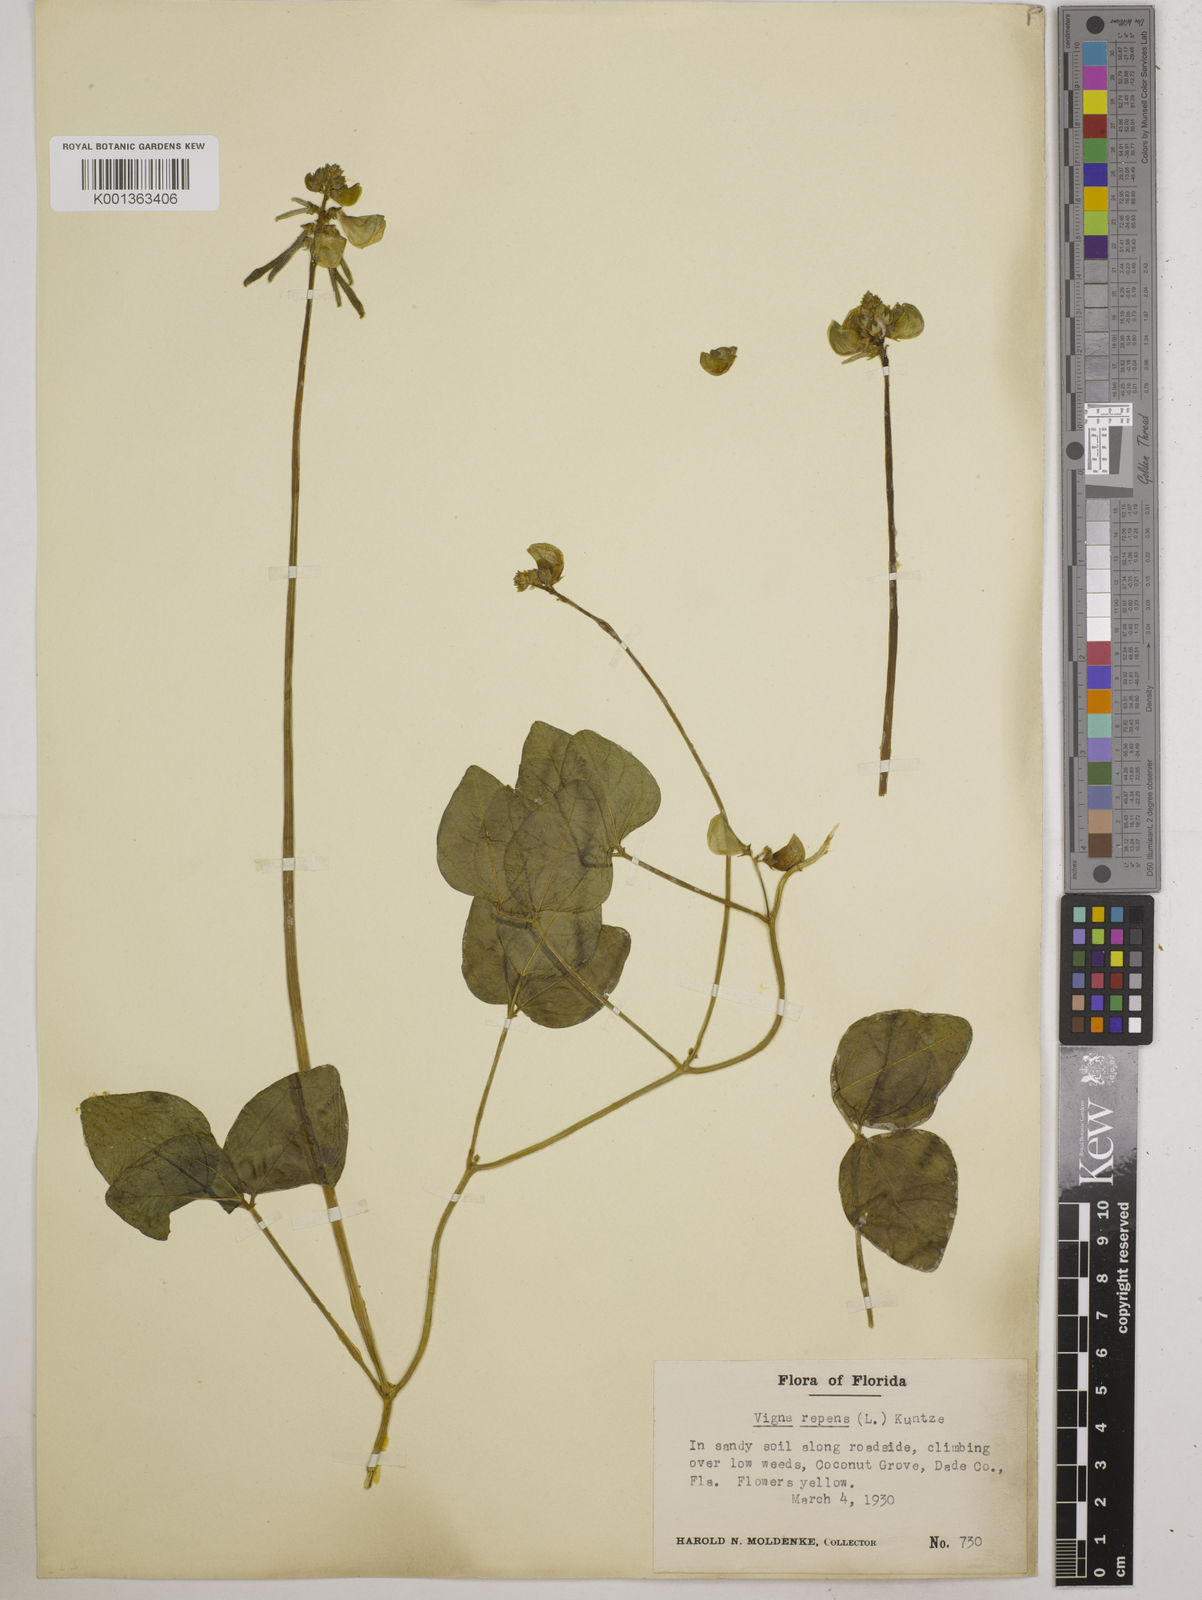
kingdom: Plantae
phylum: Tracheophyta
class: Magnoliopsida
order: Fabales
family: Fabaceae
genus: Vigna
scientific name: Vigna luteola
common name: Hairypod cowpea
